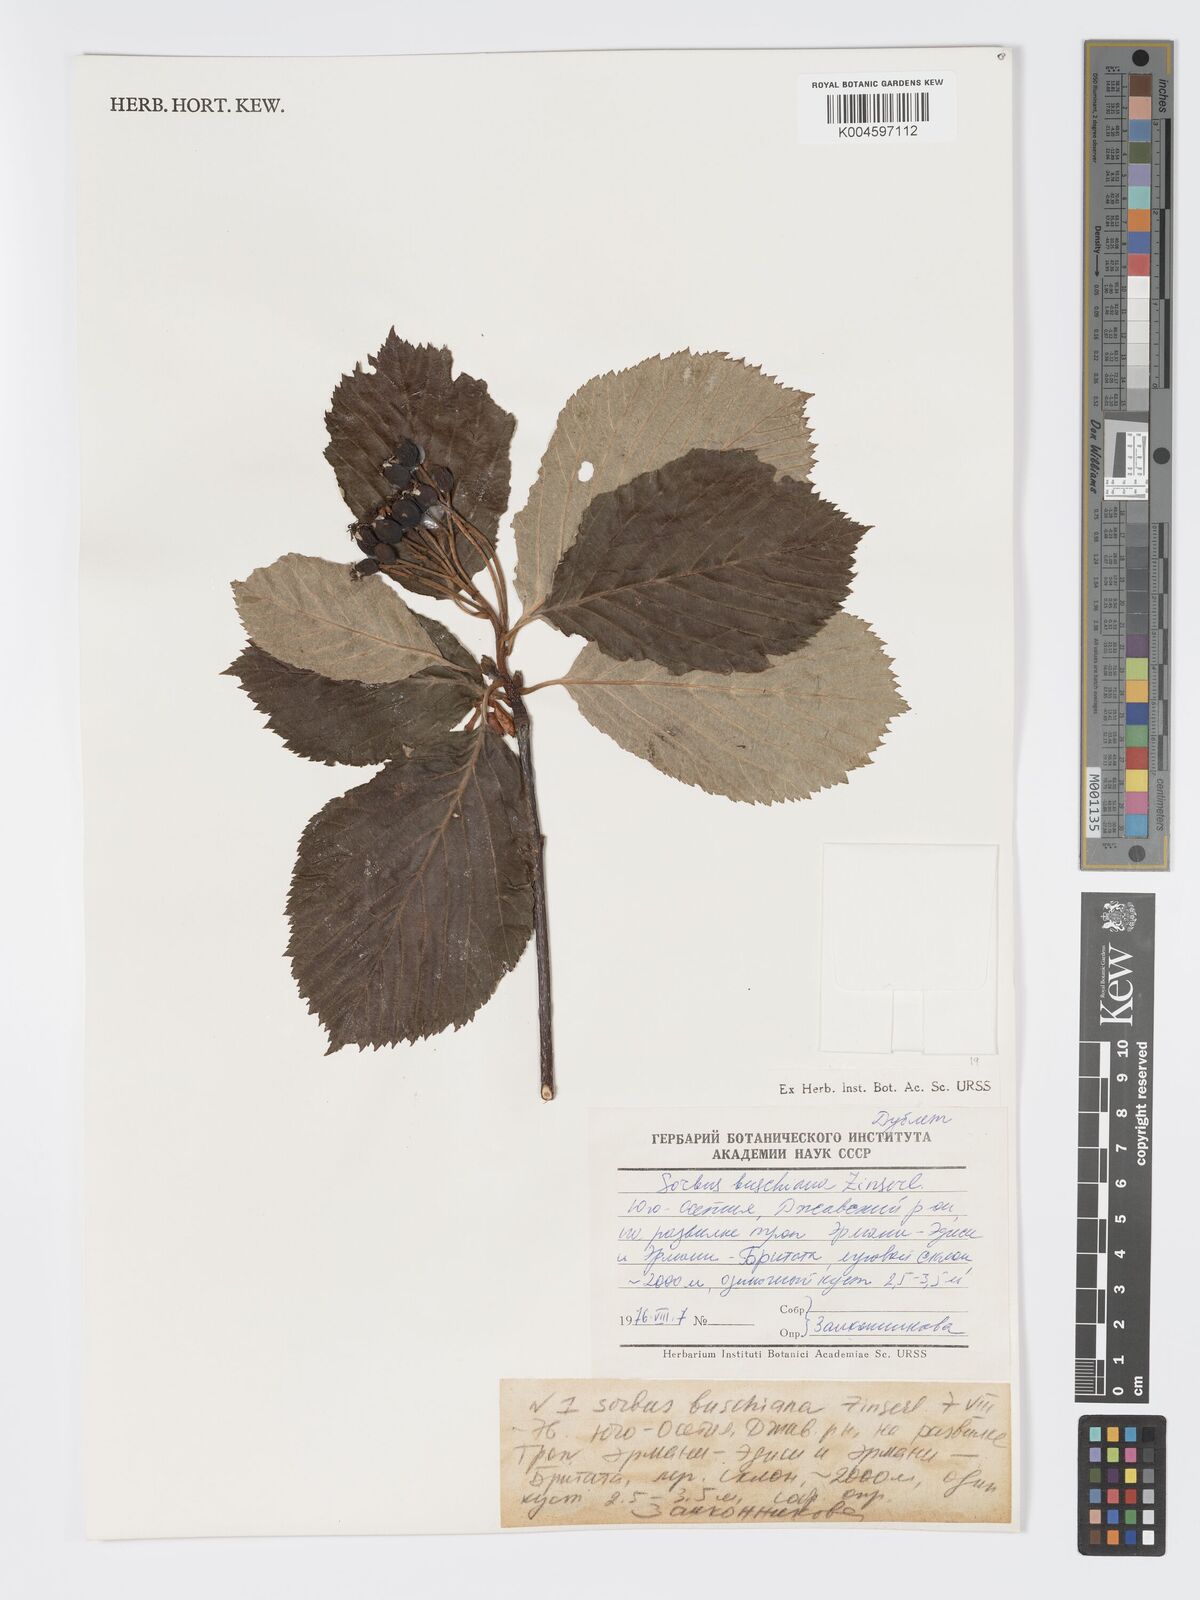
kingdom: Plantae
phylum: Tracheophyta
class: Magnoliopsida
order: Rosales
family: Rosaceae
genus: Sorbus
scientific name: Sorbus subfusca
